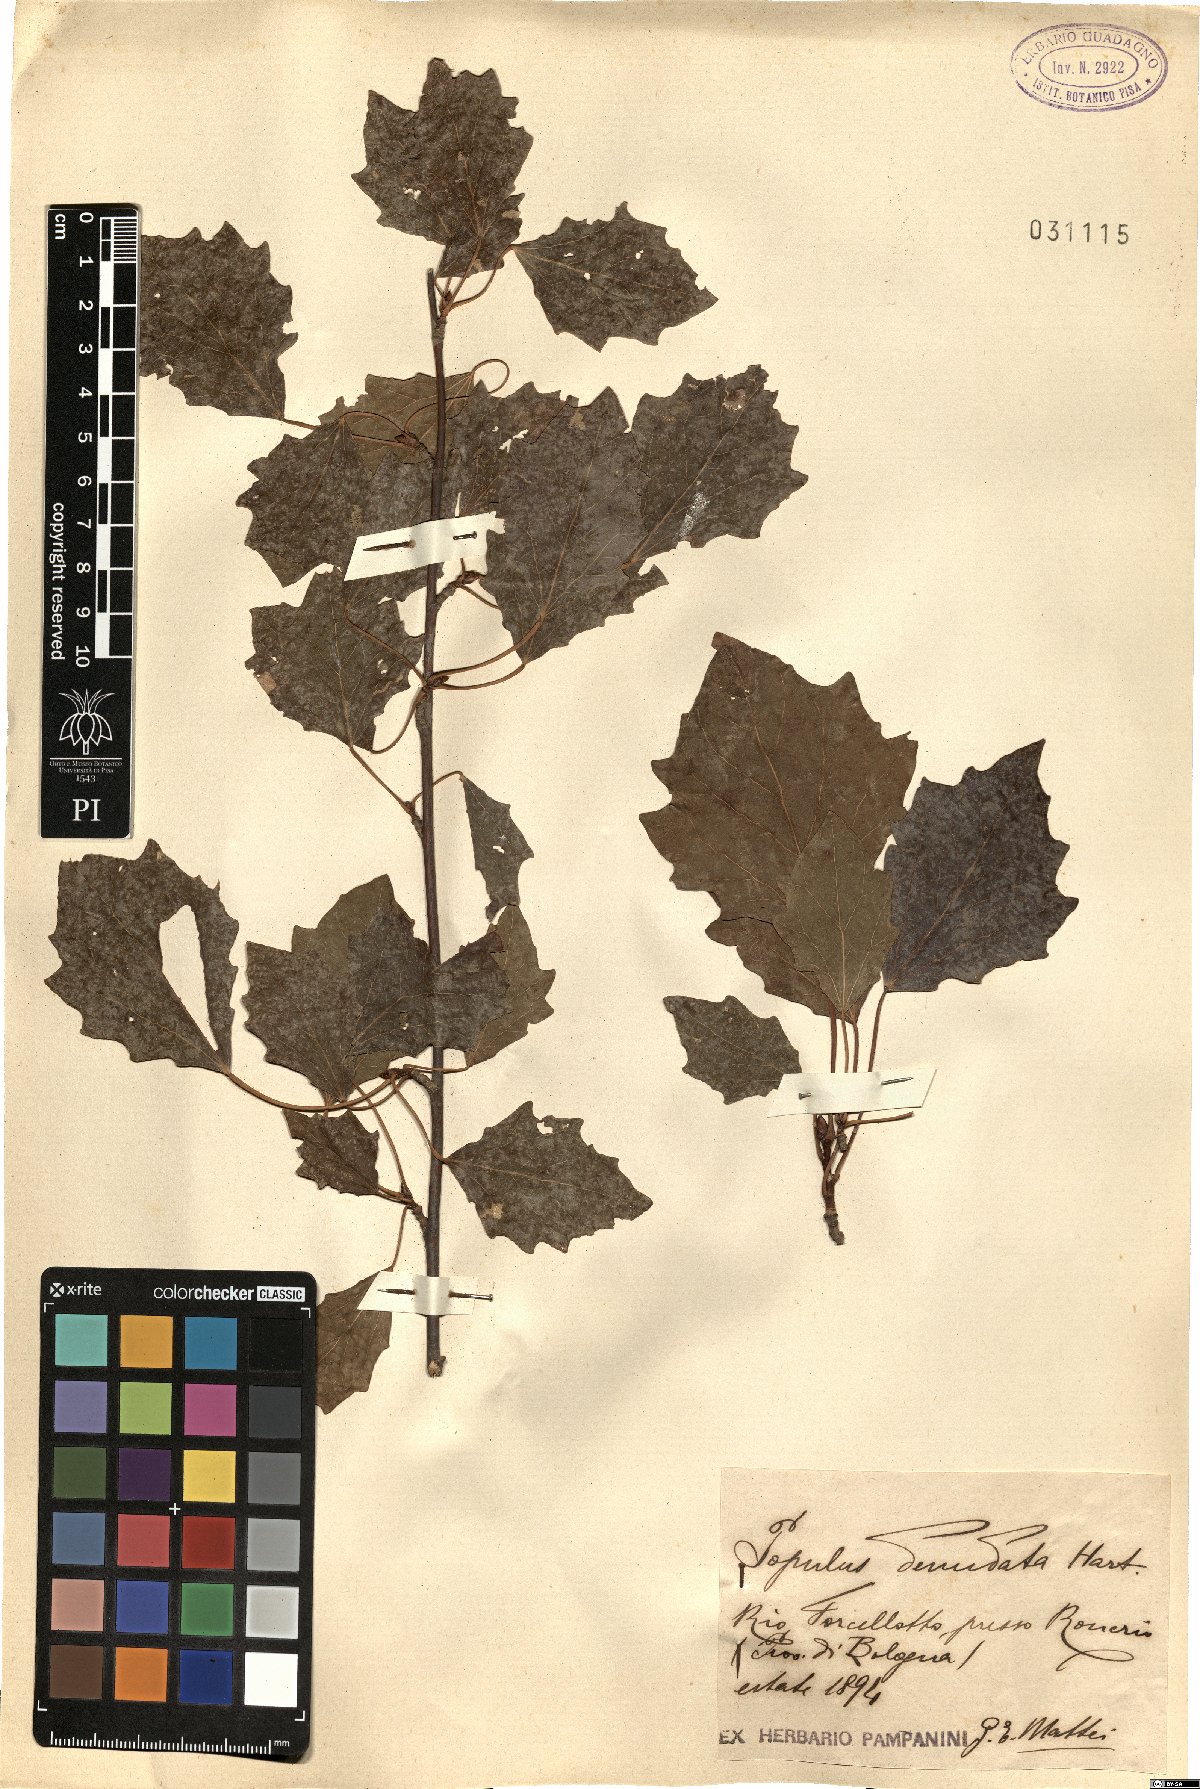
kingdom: Plantae
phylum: Tracheophyta
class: Magnoliopsida
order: Malpighiales
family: Salicaceae
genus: Populus
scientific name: Populus alba
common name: White poplar
